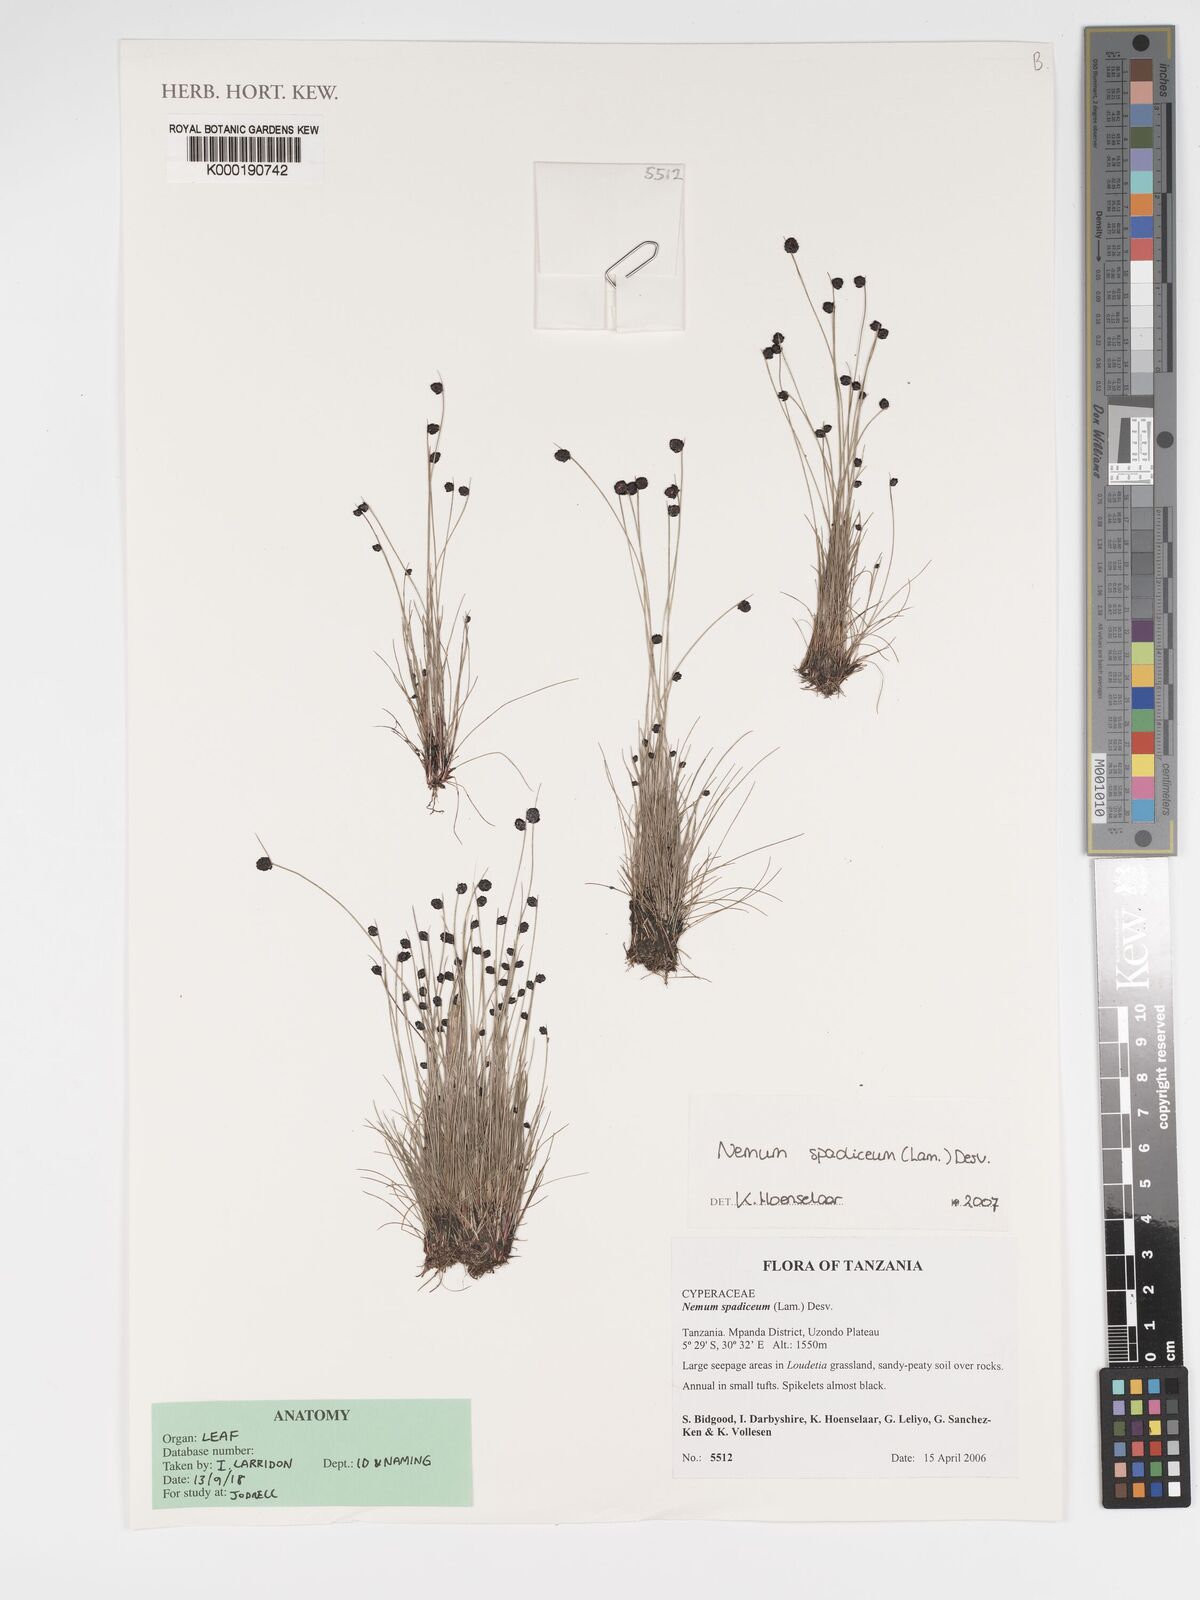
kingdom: Plantae
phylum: Tracheophyta
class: Liliopsida
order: Poales
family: Cyperaceae
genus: Bulbostylis
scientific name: Bulbostylis briziformis
